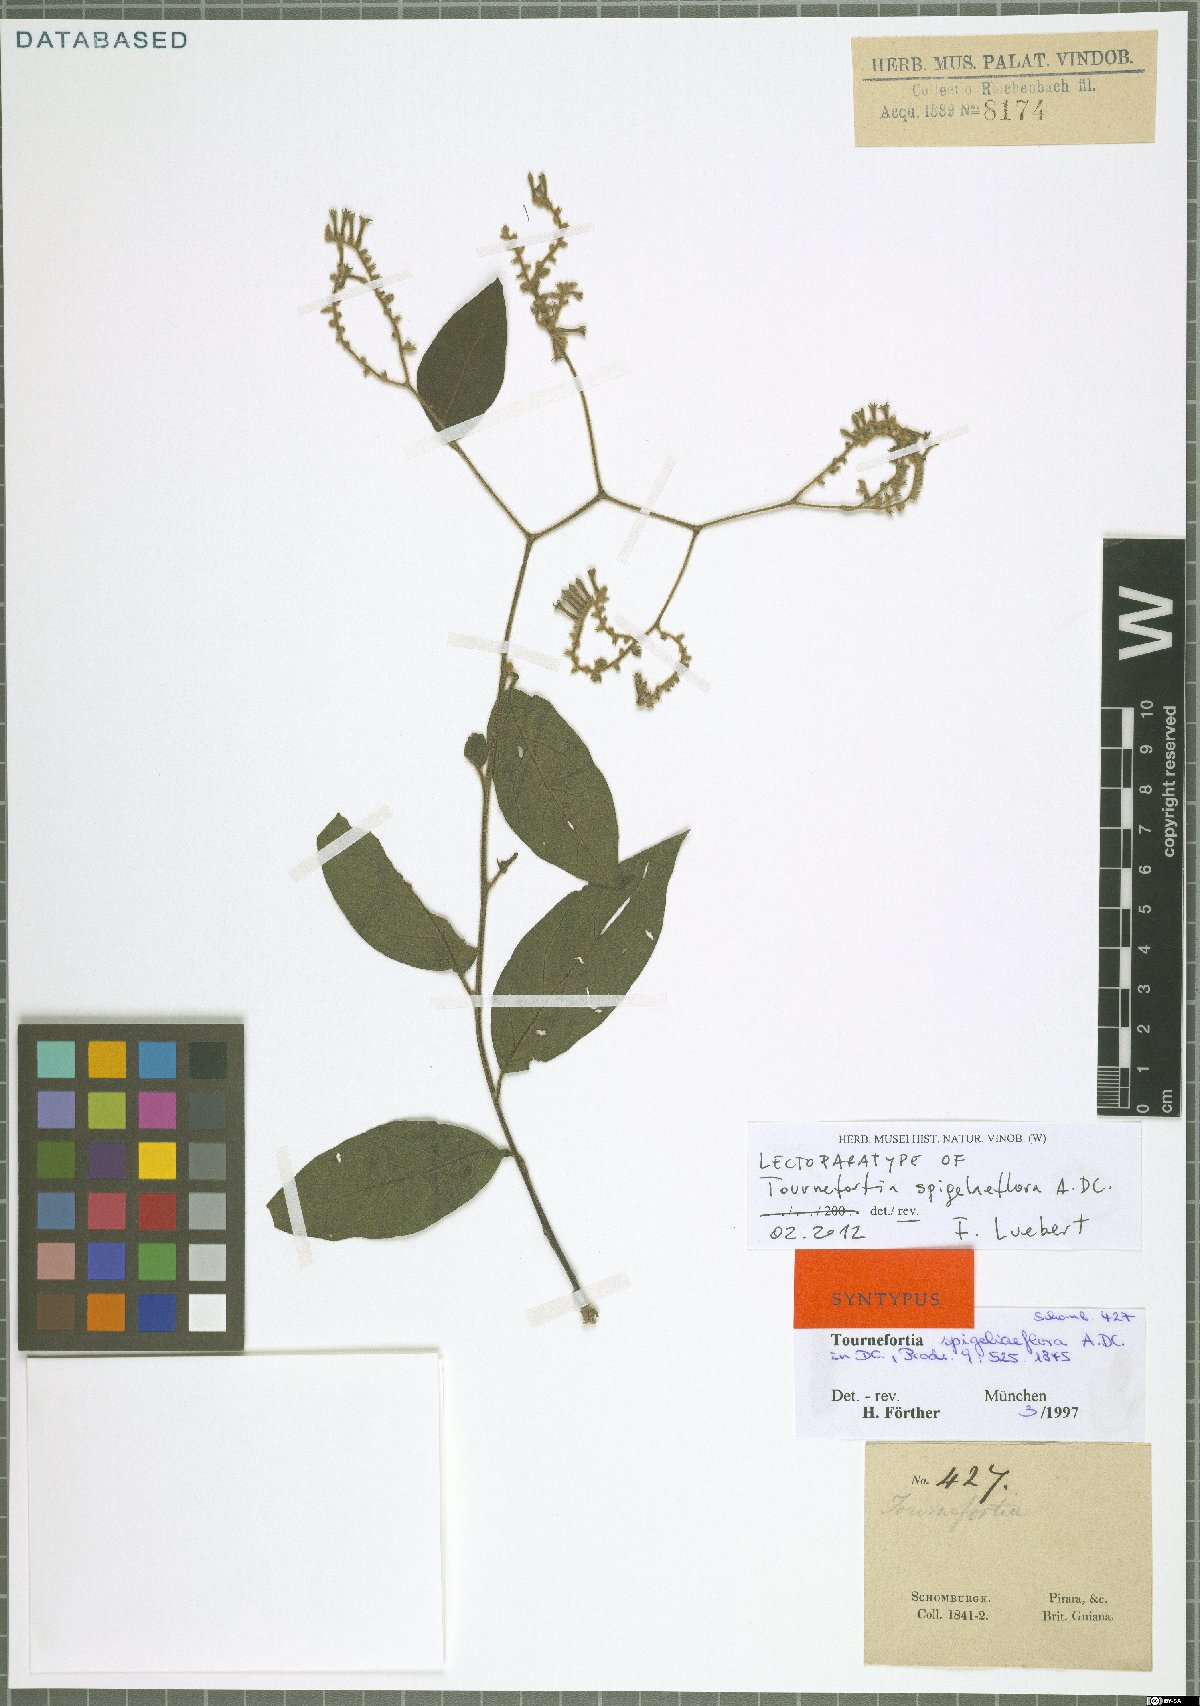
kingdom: Plantae
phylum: Tracheophyta
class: Magnoliopsida
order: Boraginales
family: Heliotropiaceae
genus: Myriopus
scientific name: Myriopus paniculatus
